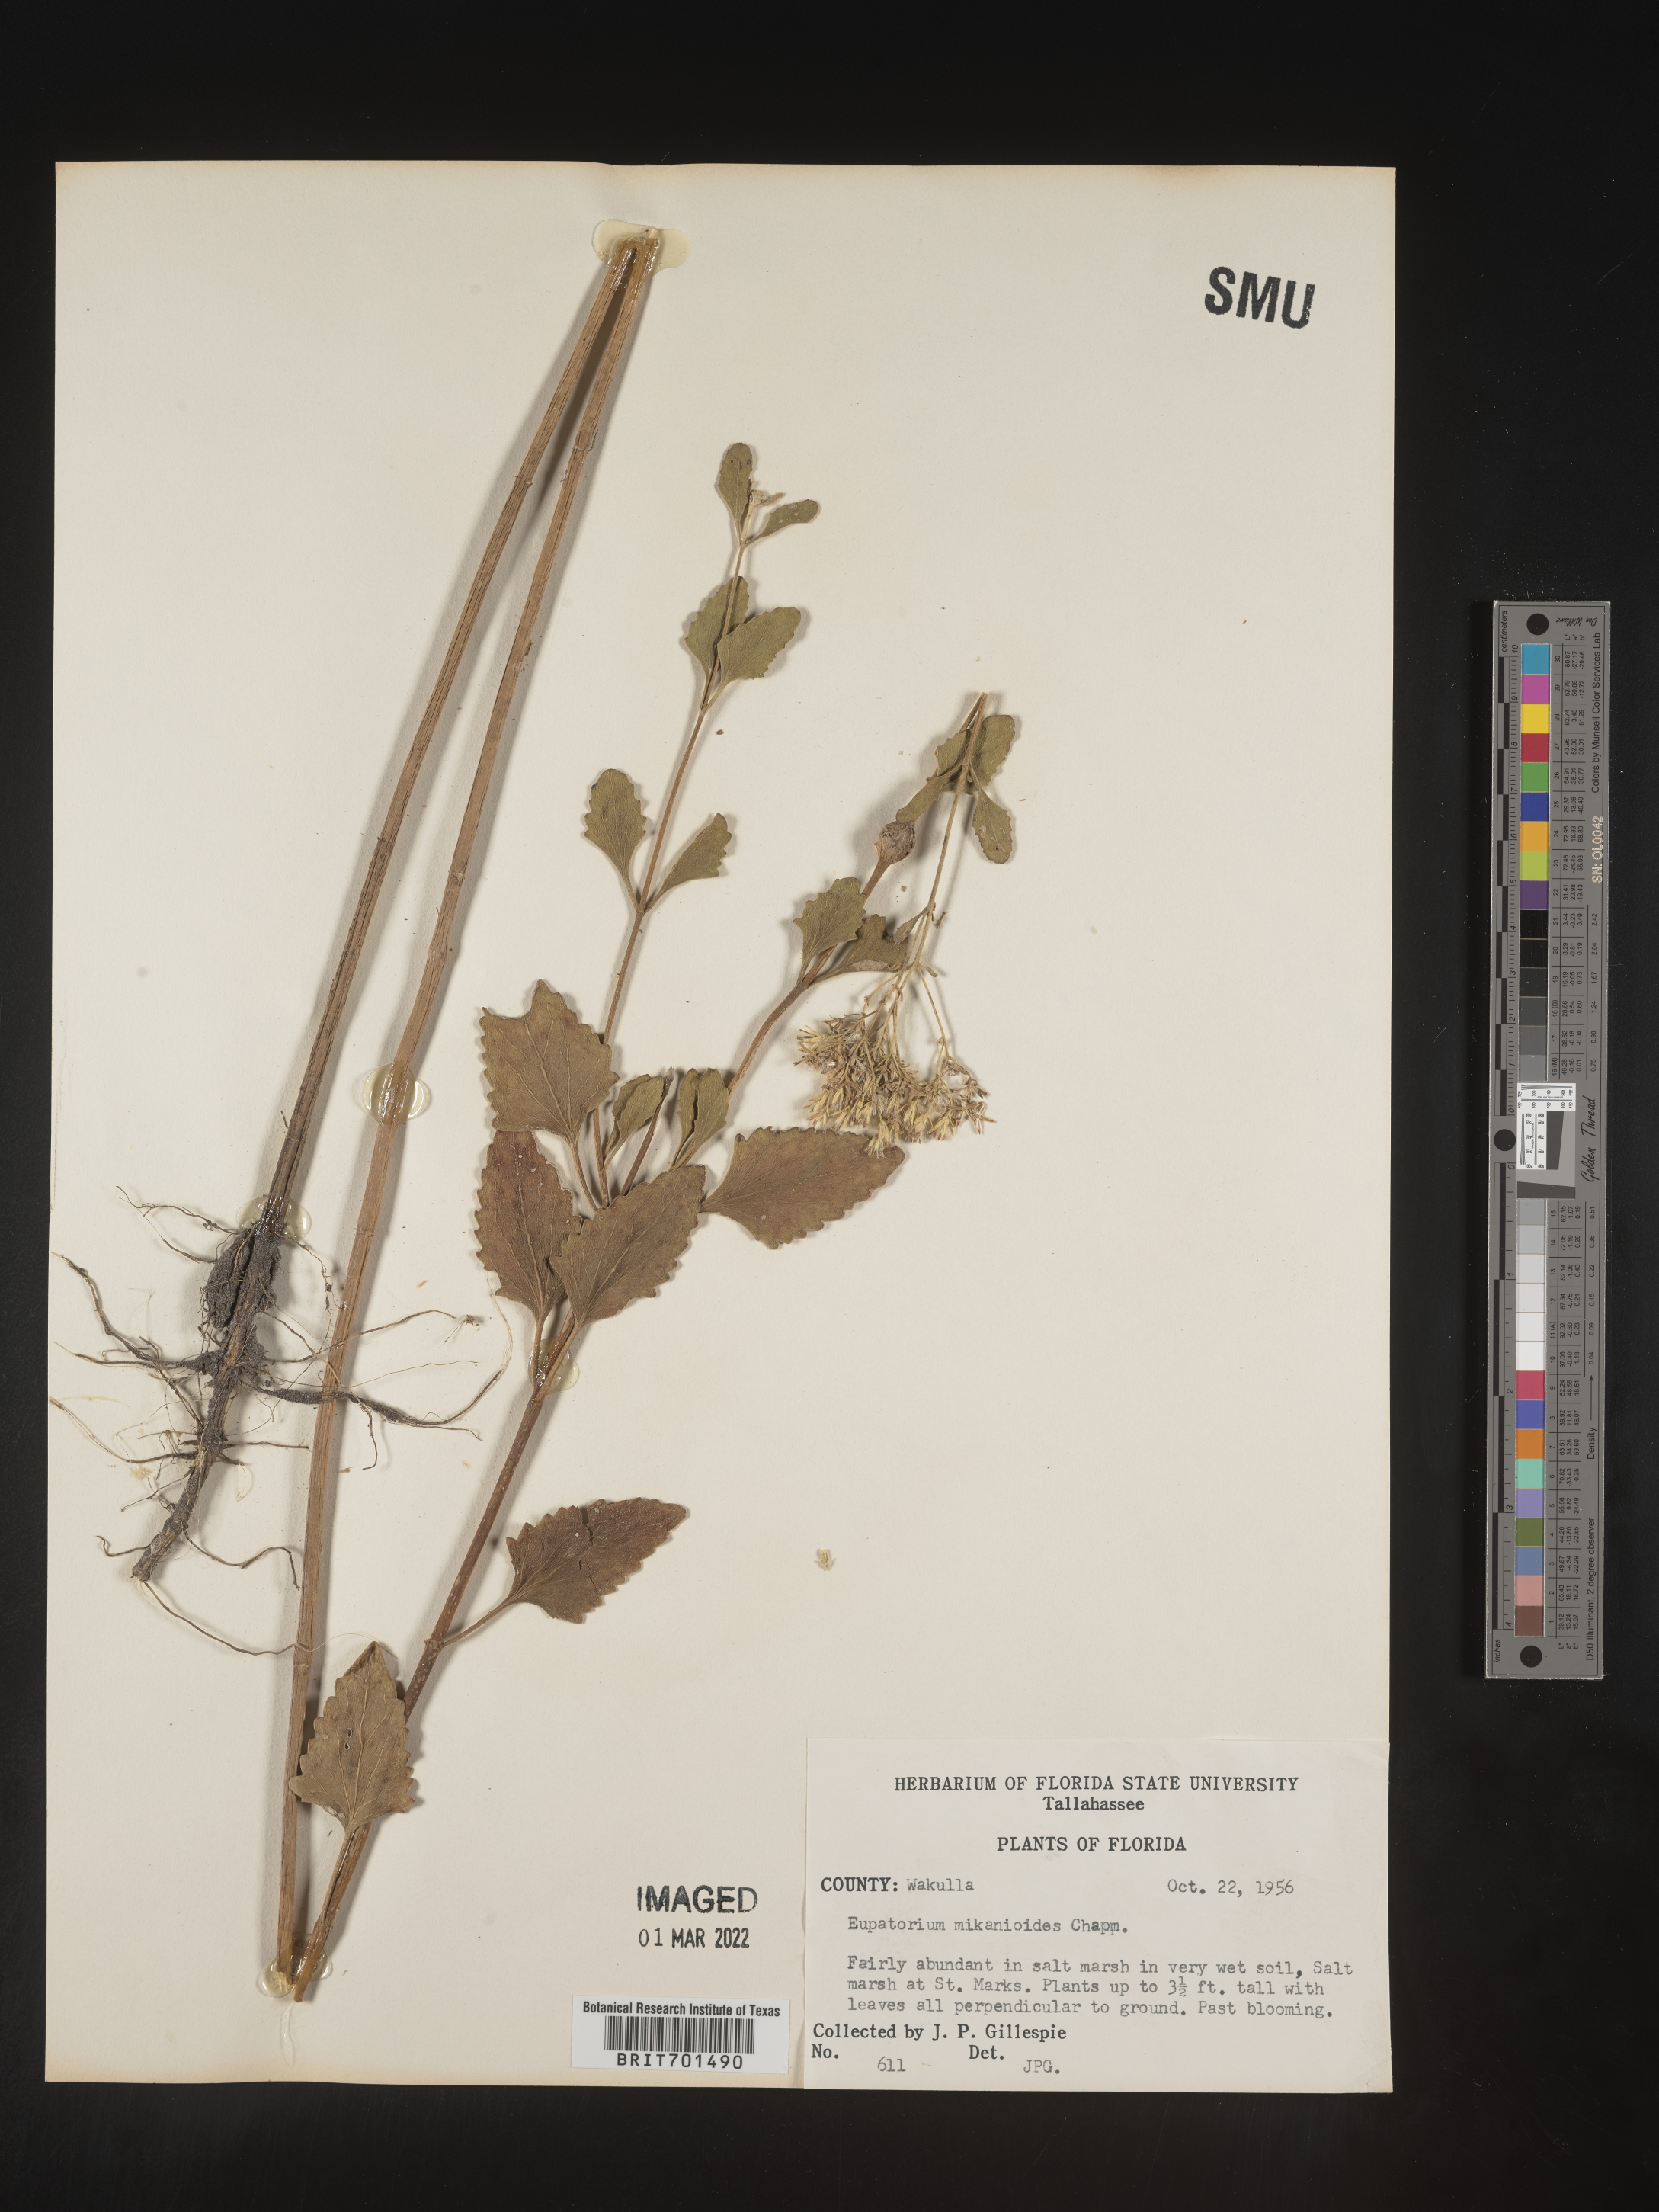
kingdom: Plantae
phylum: Tracheophyta
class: Magnoliopsida
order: Asterales
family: Asteraceae
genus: Eupatorium
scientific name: Eupatorium
